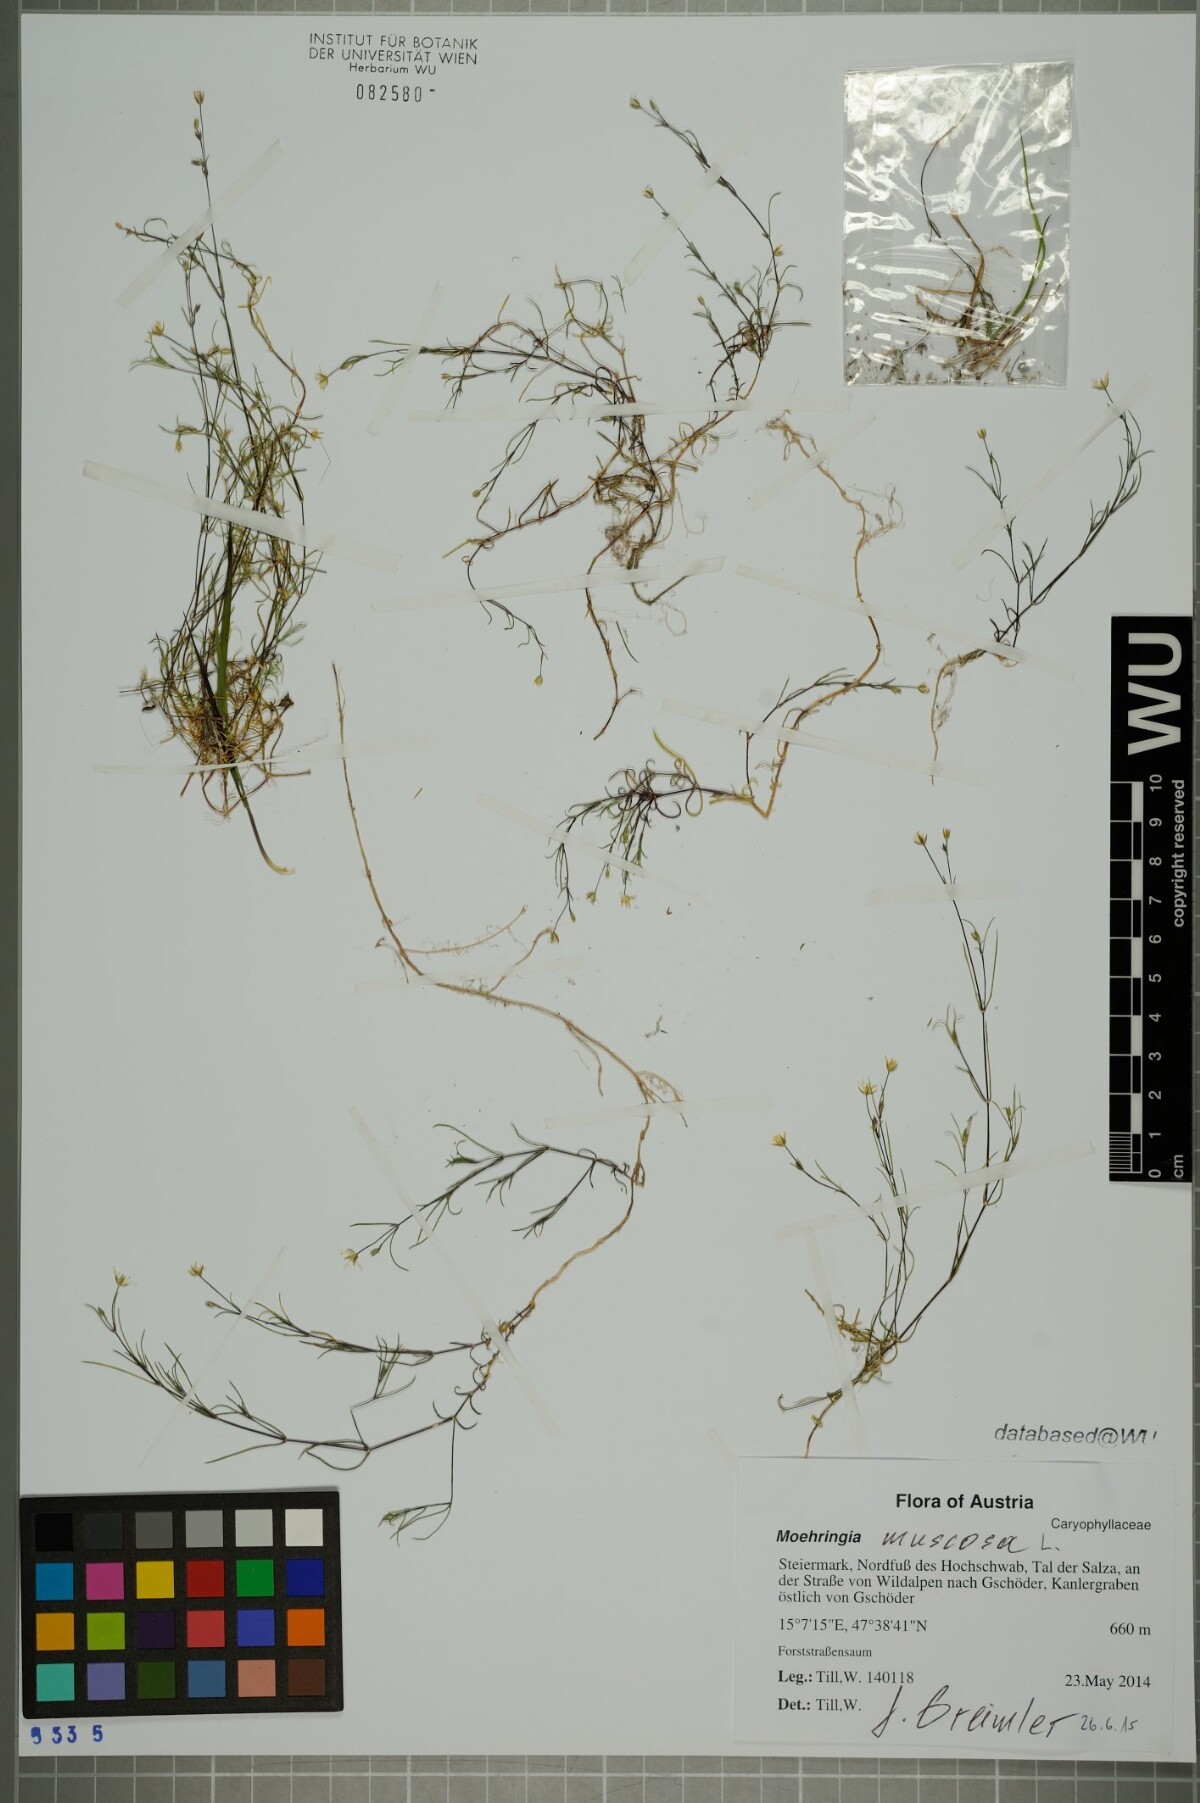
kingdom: Plantae
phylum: Tracheophyta
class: Magnoliopsida
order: Caryophyllales
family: Caryophyllaceae
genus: Moehringia
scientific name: Moehringia muscosa
